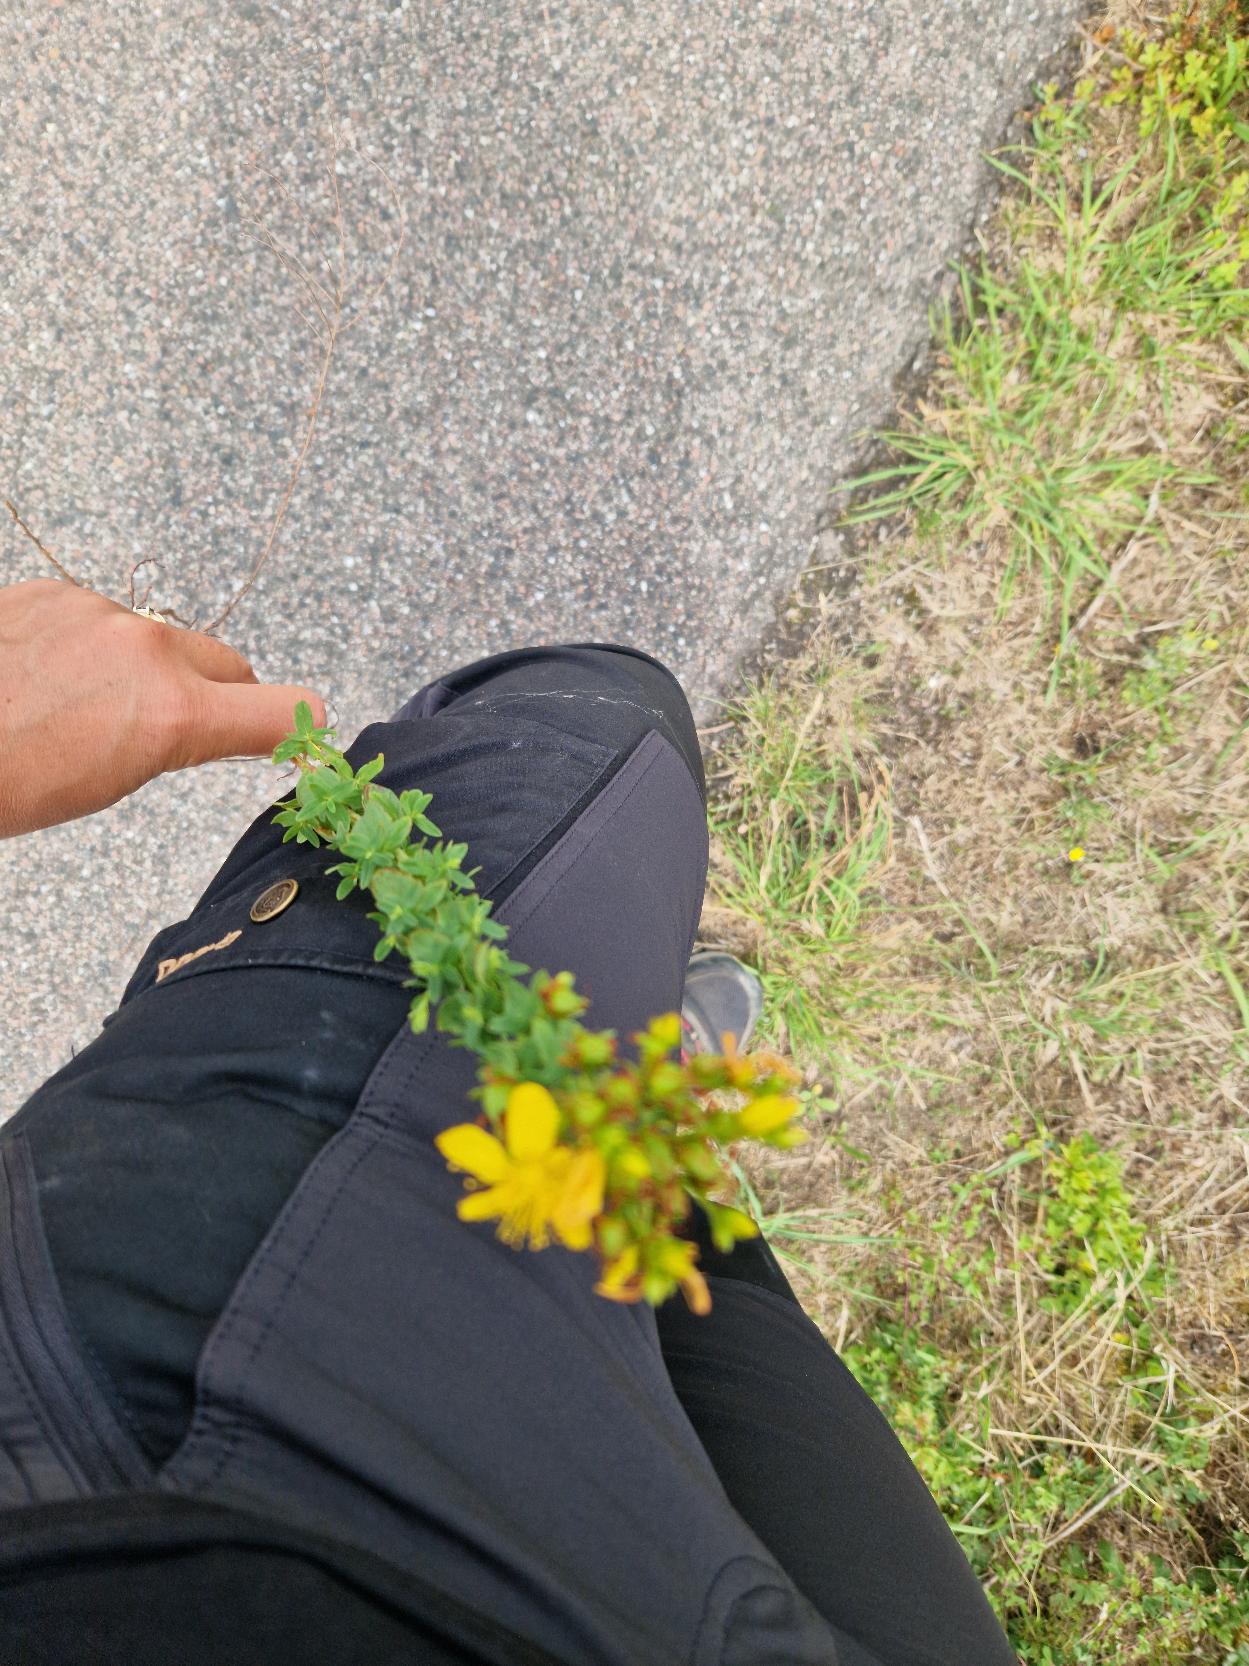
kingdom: Plantae
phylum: Tracheophyta
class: Magnoliopsida
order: Malpighiales
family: Hypericaceae
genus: Hypericum
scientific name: Hypericum perforatum
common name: Prikbladet perikon
